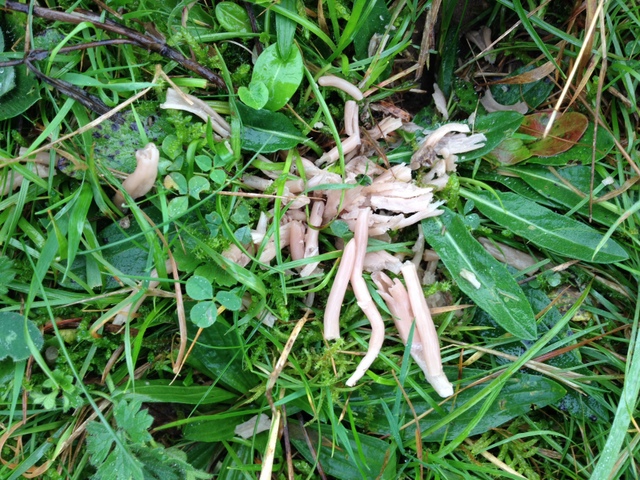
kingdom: Fungi
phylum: Basidiomycota
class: Agaricomycetes
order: Agaricales
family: Clavariaceae
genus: Clavaria
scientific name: Clavaria fumosa
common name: røggrå køllesvamp
